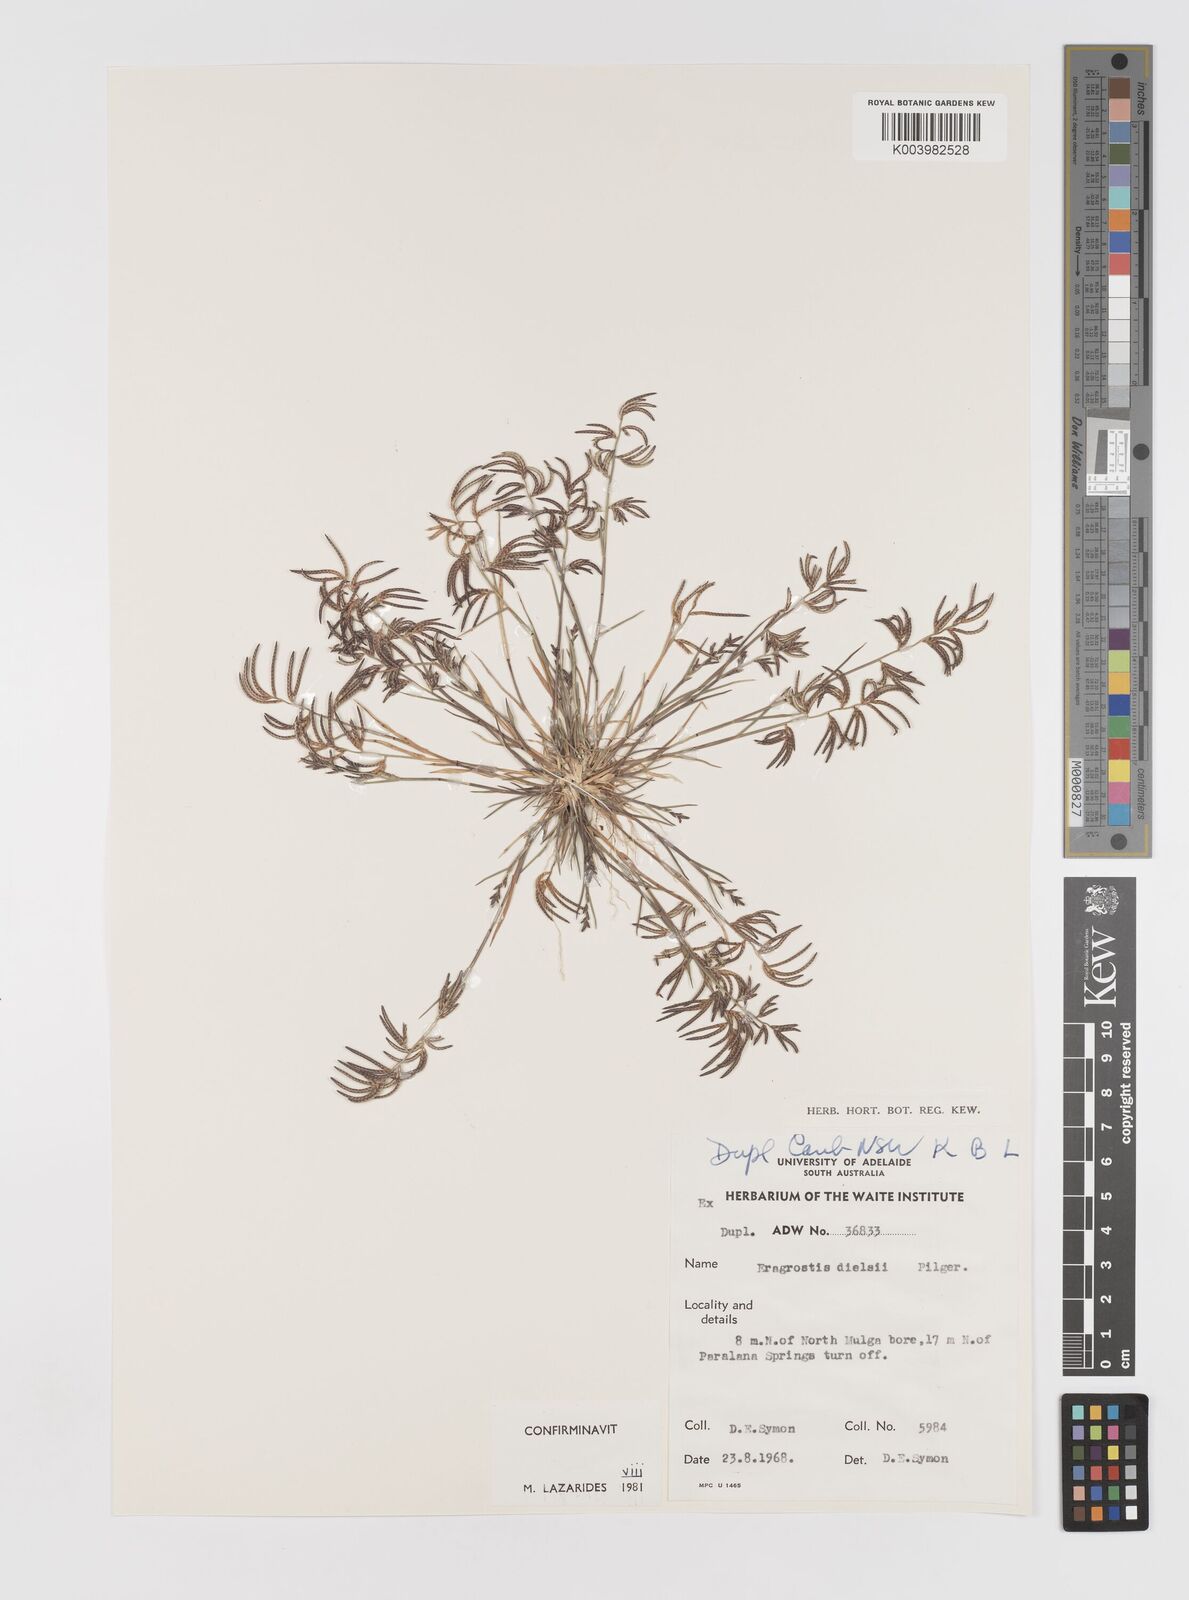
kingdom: Plantae
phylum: Tracheophyta
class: Liliopsida
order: Poales
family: Poaceae
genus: Eragrostis
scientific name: Eragrostis dielsii
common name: Lovegrass
